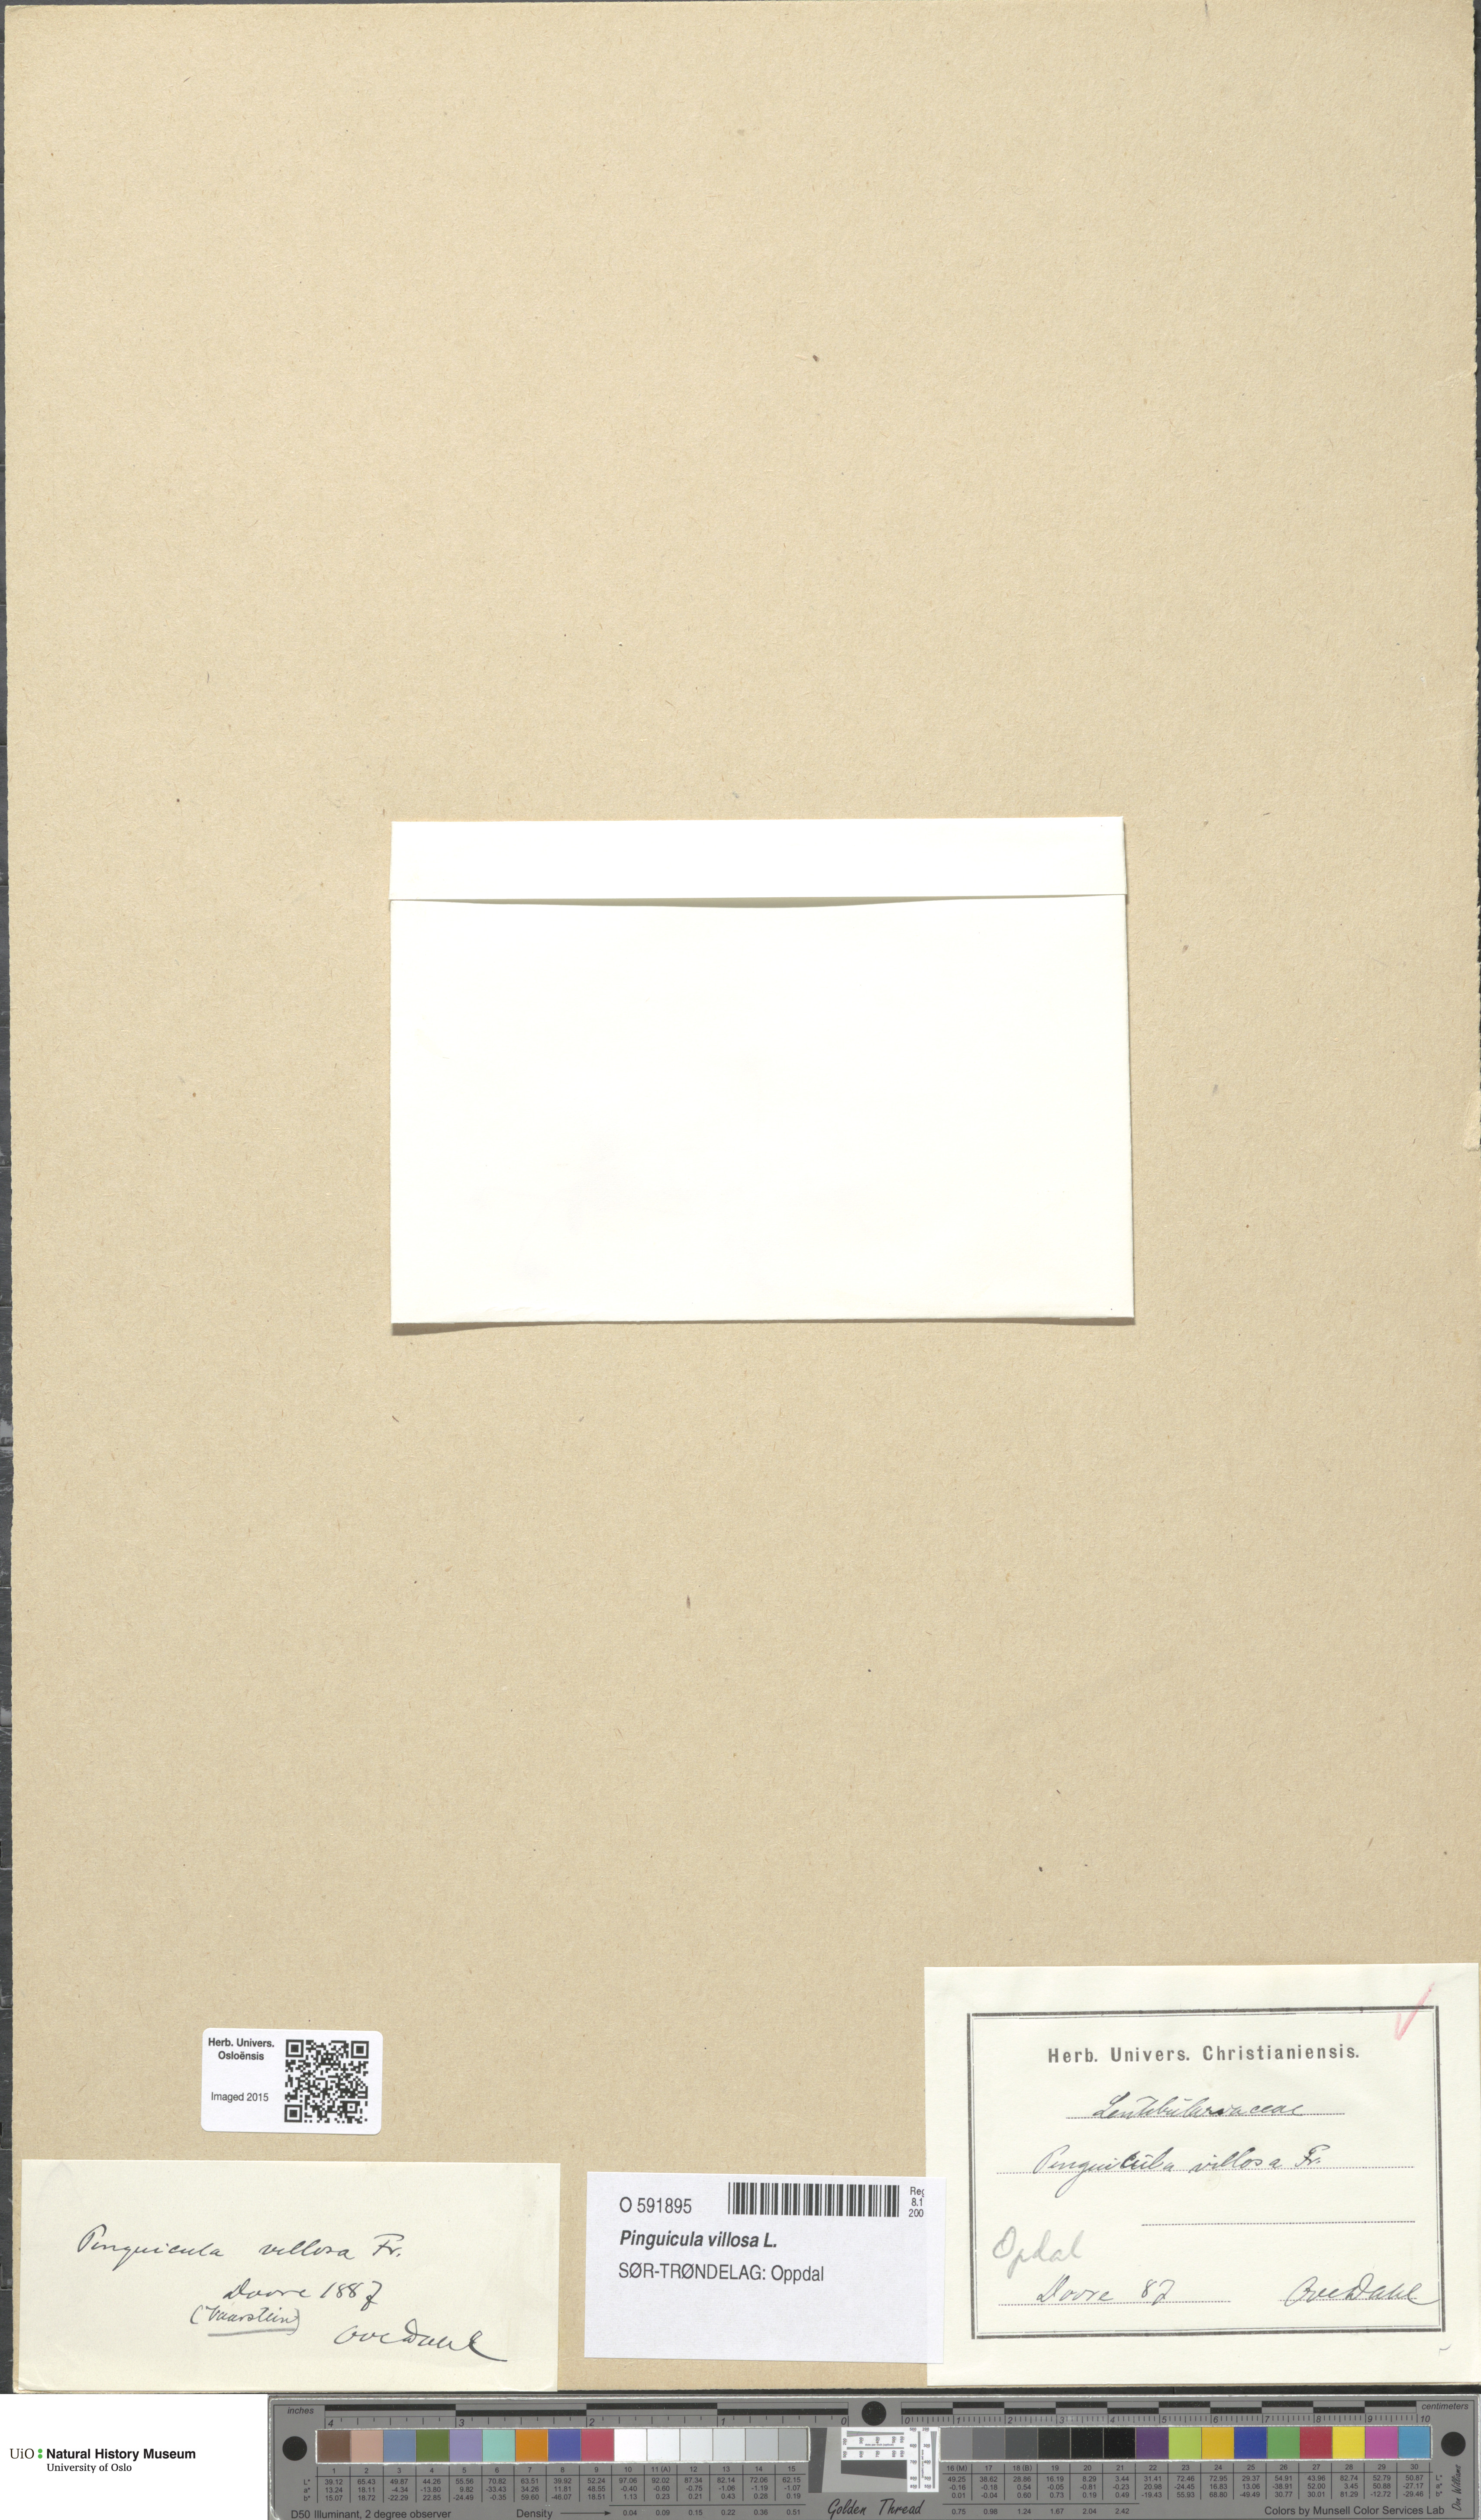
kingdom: Plantae
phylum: Tracheophyta
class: Magnoliopsida
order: Lamiales
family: Lentibulariaceae
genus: Pinguicula
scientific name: Pinguicula villosa
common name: Hairy butterwort
